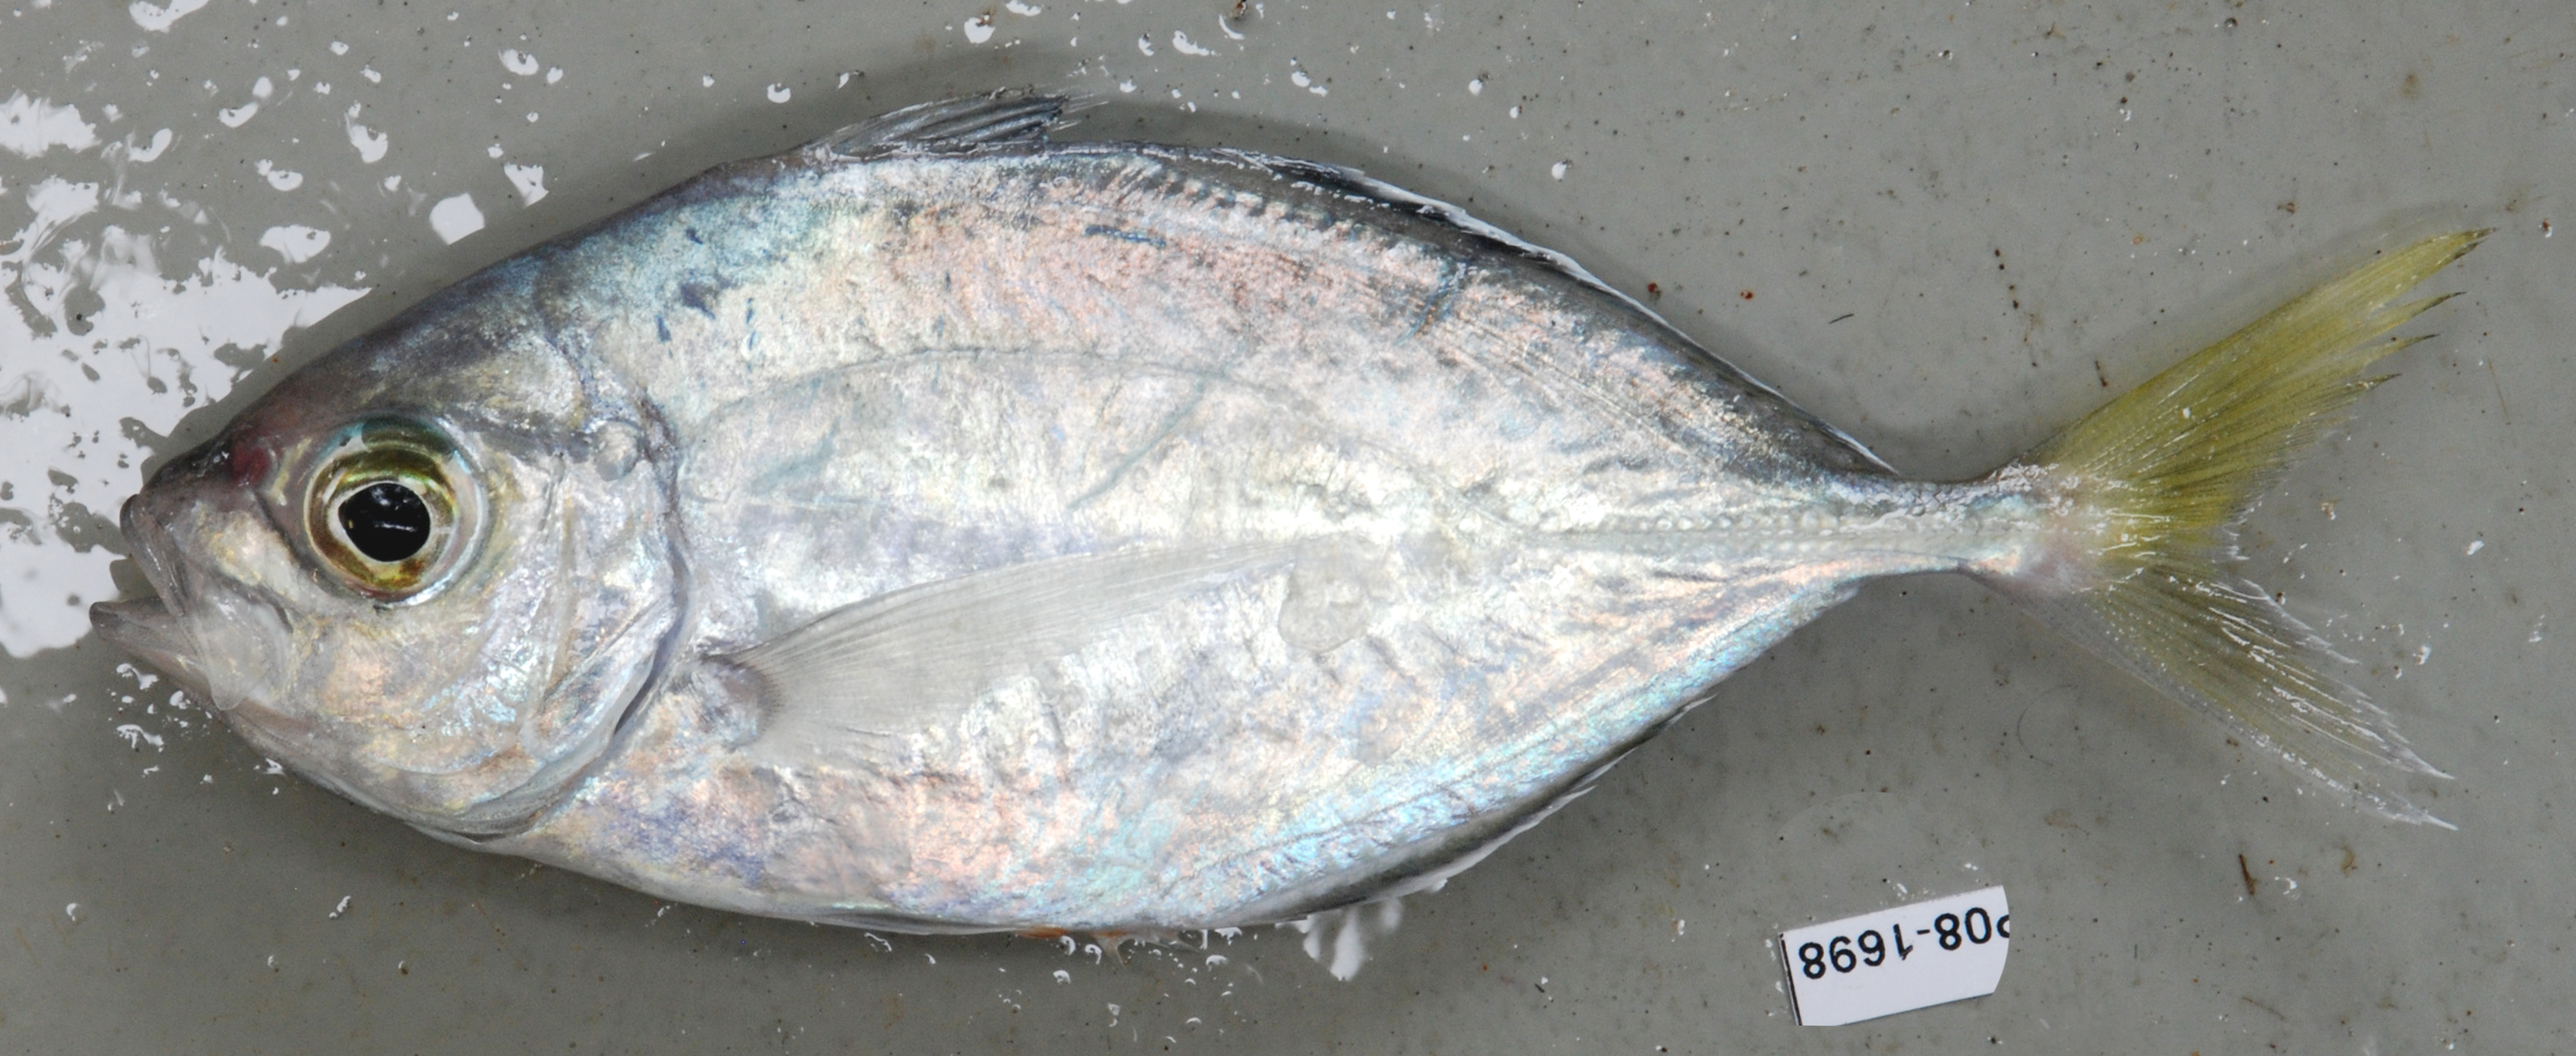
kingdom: Animalia
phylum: Chordata
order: Perciformes
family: Carangidae
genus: Carangoides
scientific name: Carangoides equula
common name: Whitefin trevally
